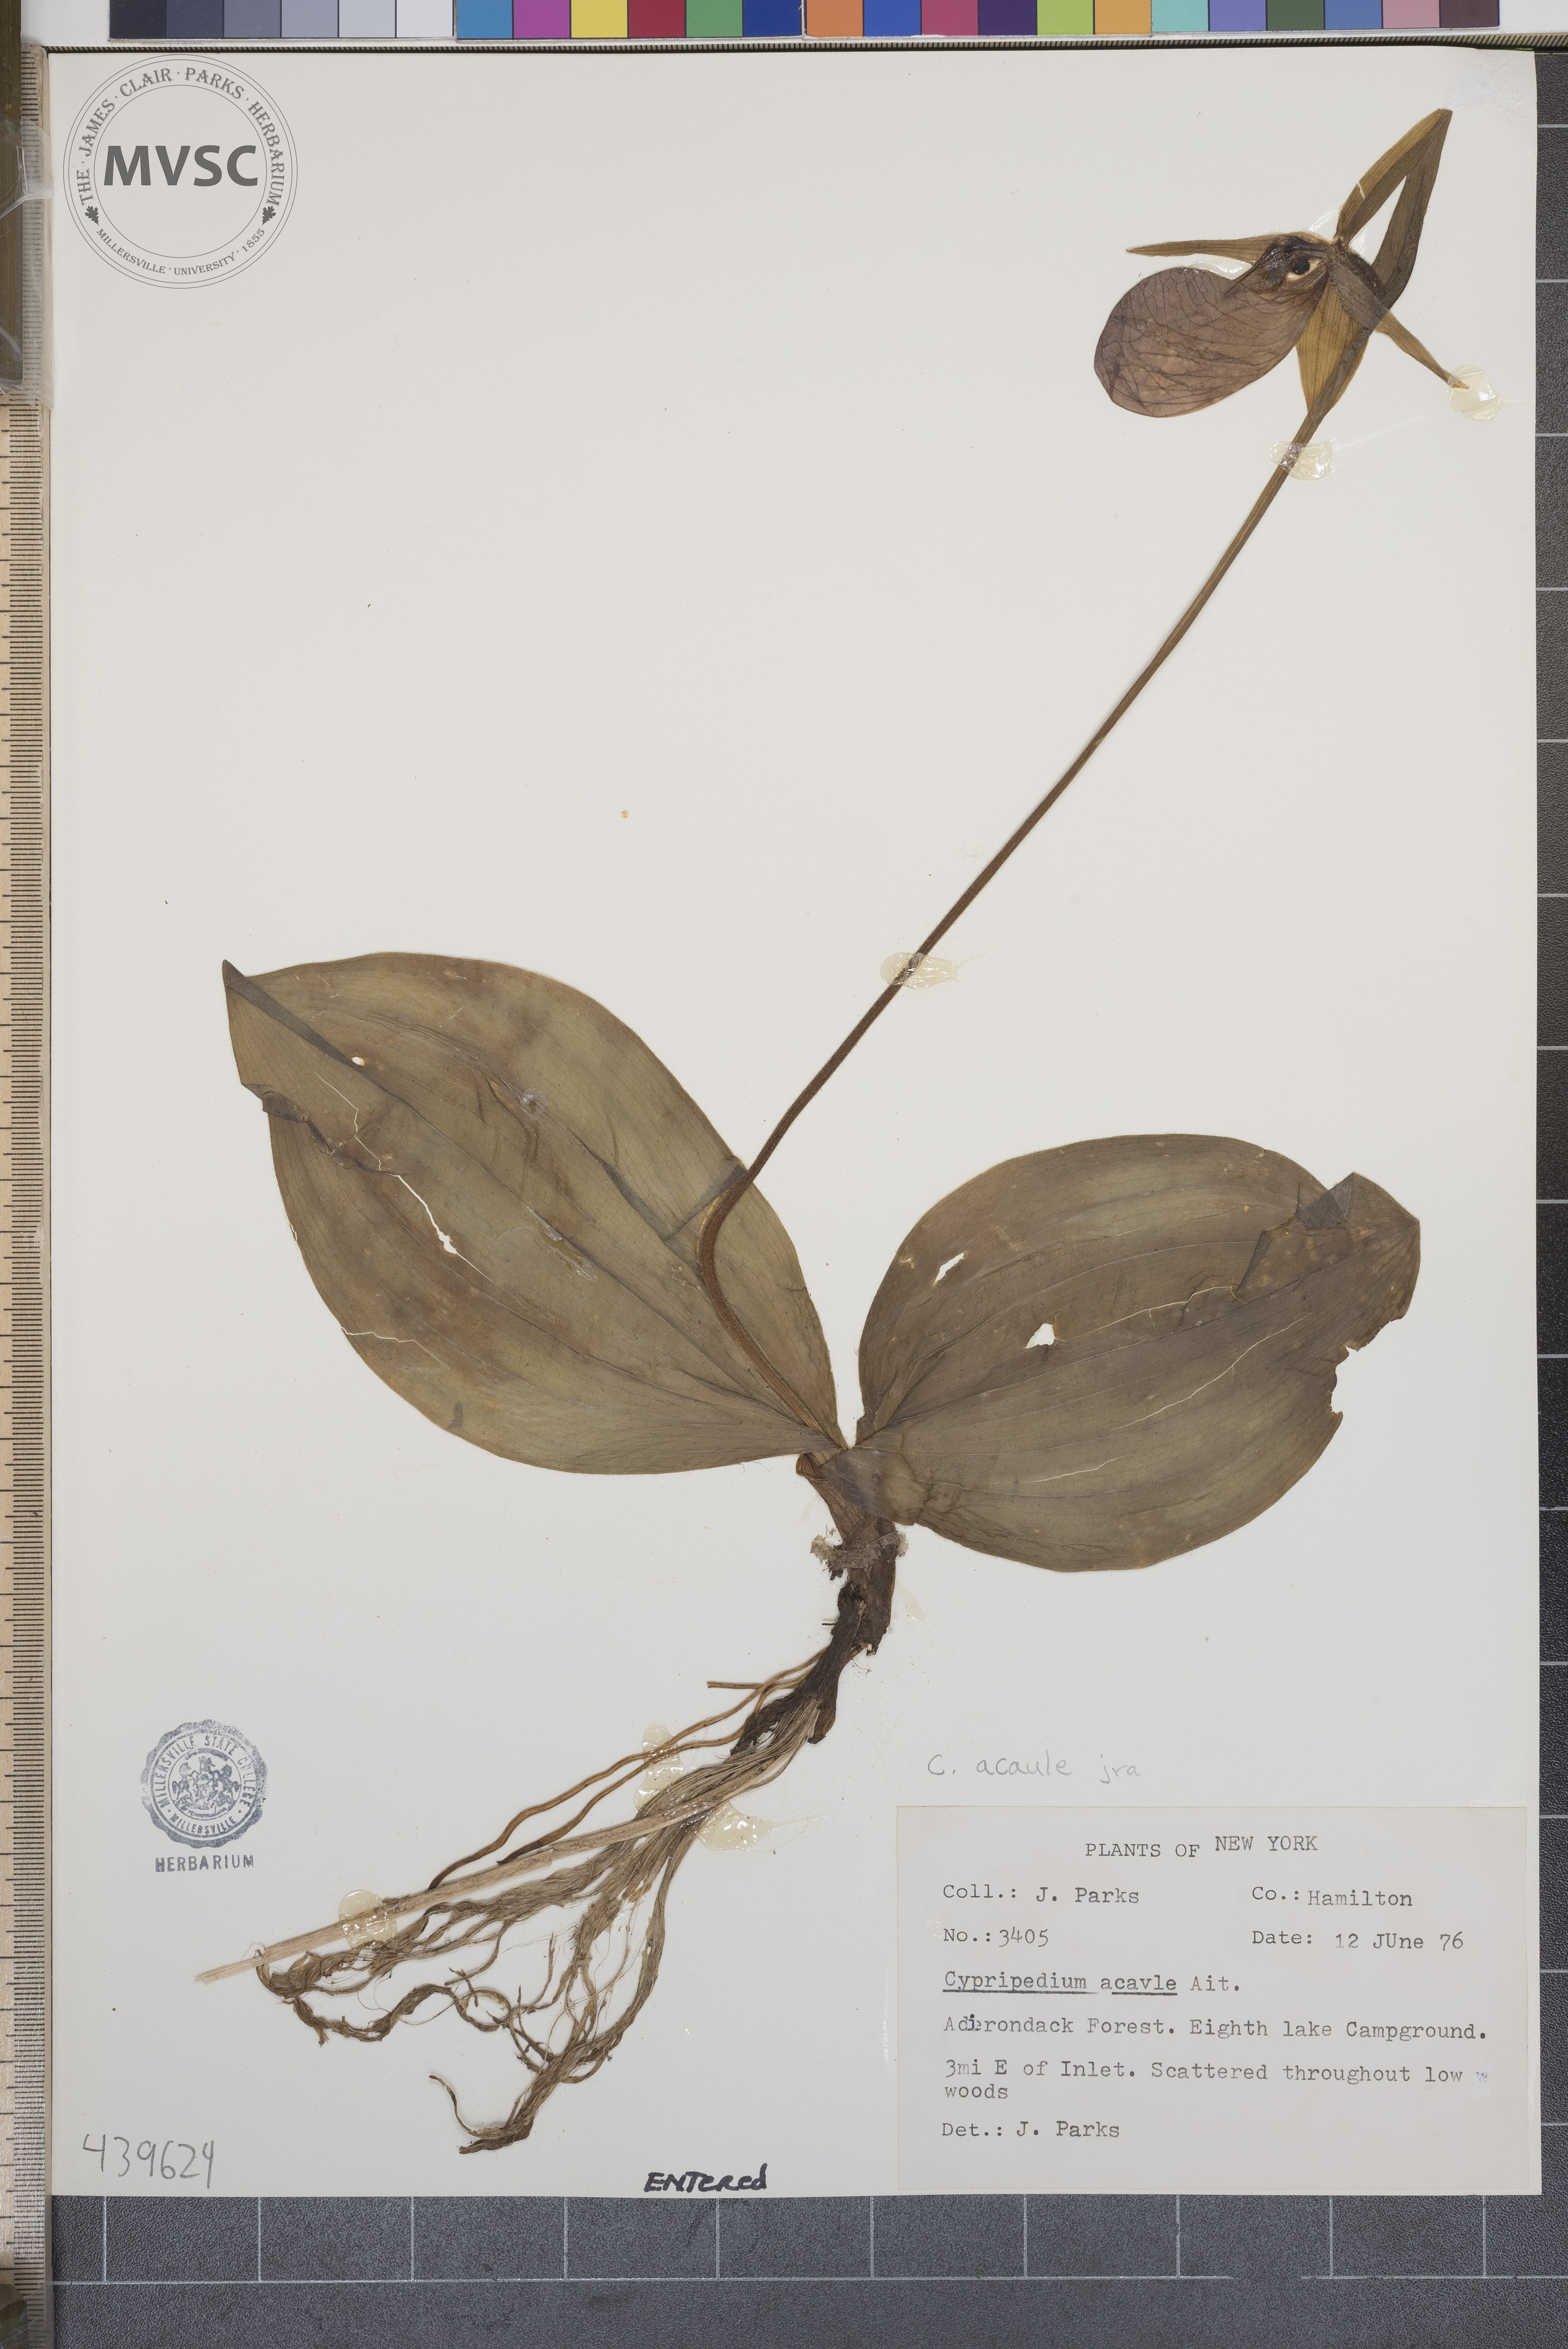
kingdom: Plantae
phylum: Tracheophyta
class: Liliopsida
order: Asparagales
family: Orchidaceae
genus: Cypripedium
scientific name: Cypripedium acaule
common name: Pink lady's-slipper
